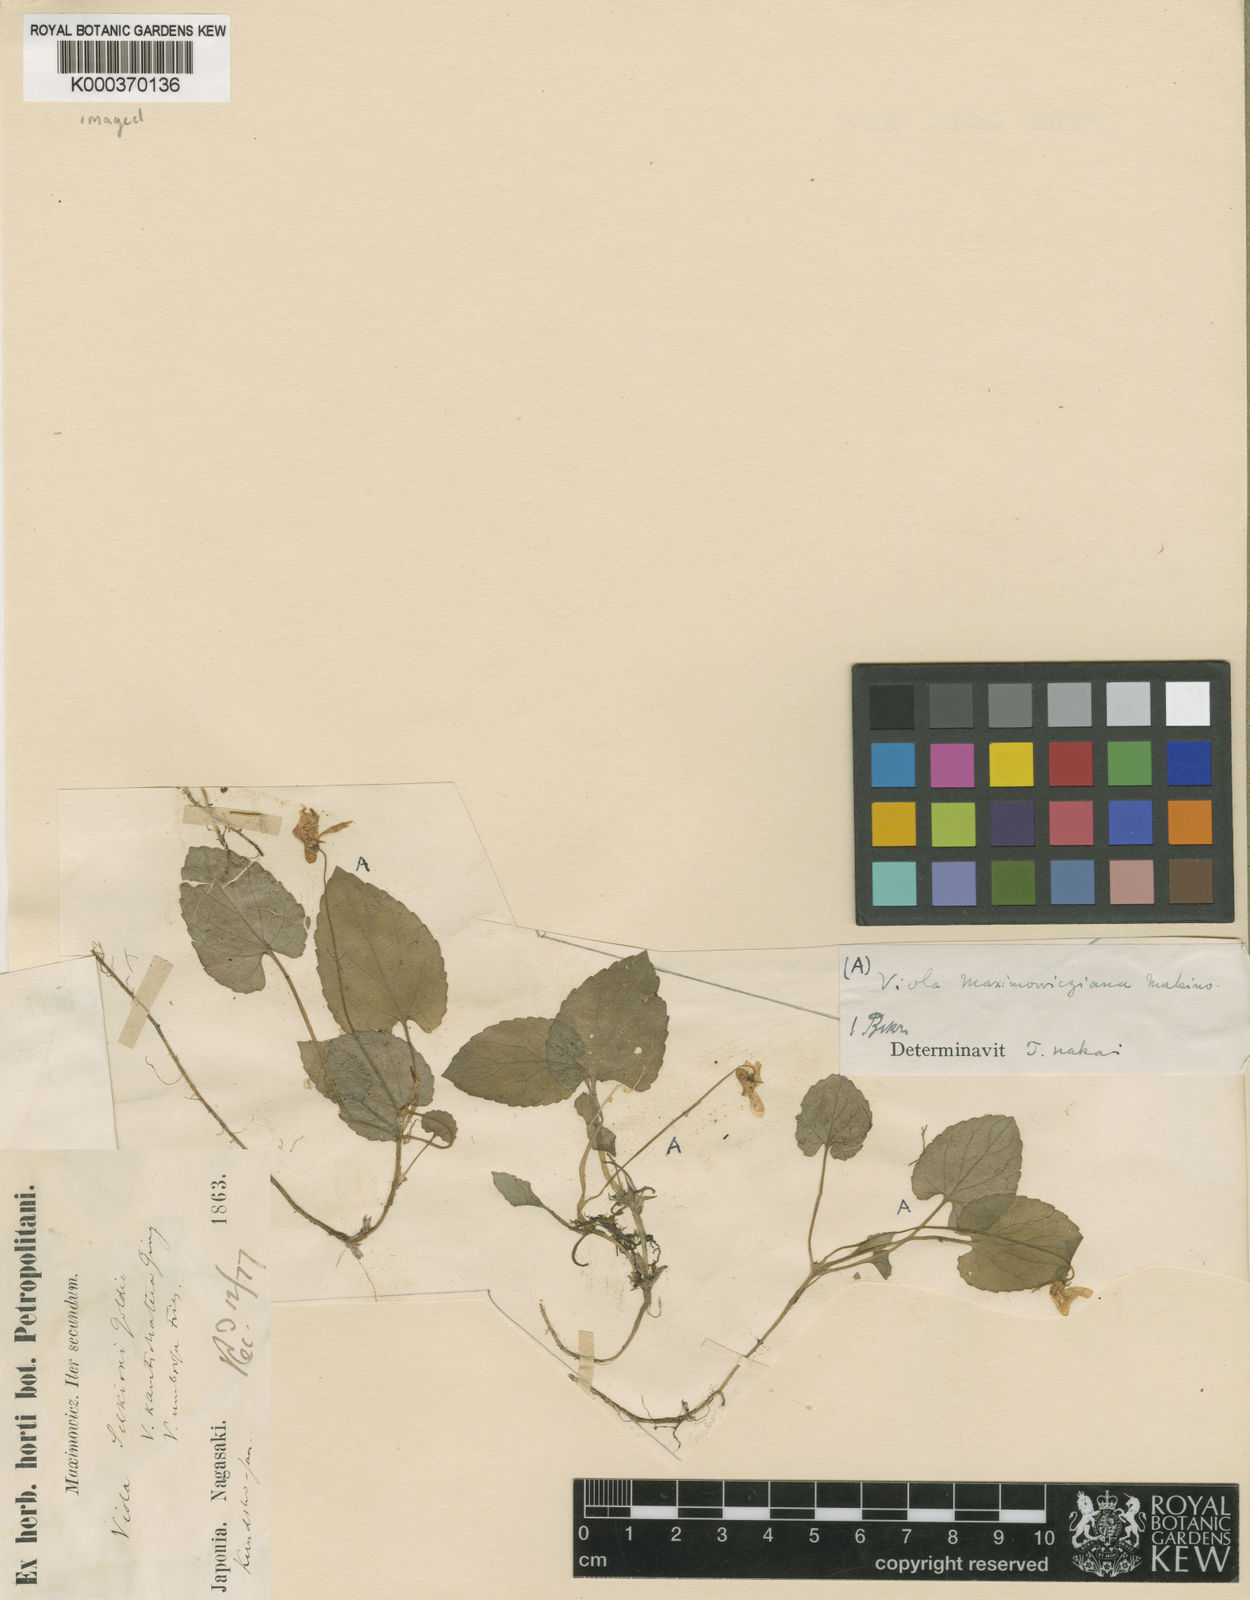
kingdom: Plantae
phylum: Tracheophyta
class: Magnoliopsida
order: Malpighiales
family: Violaceae
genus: Viola
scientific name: Viola maximowicziana
